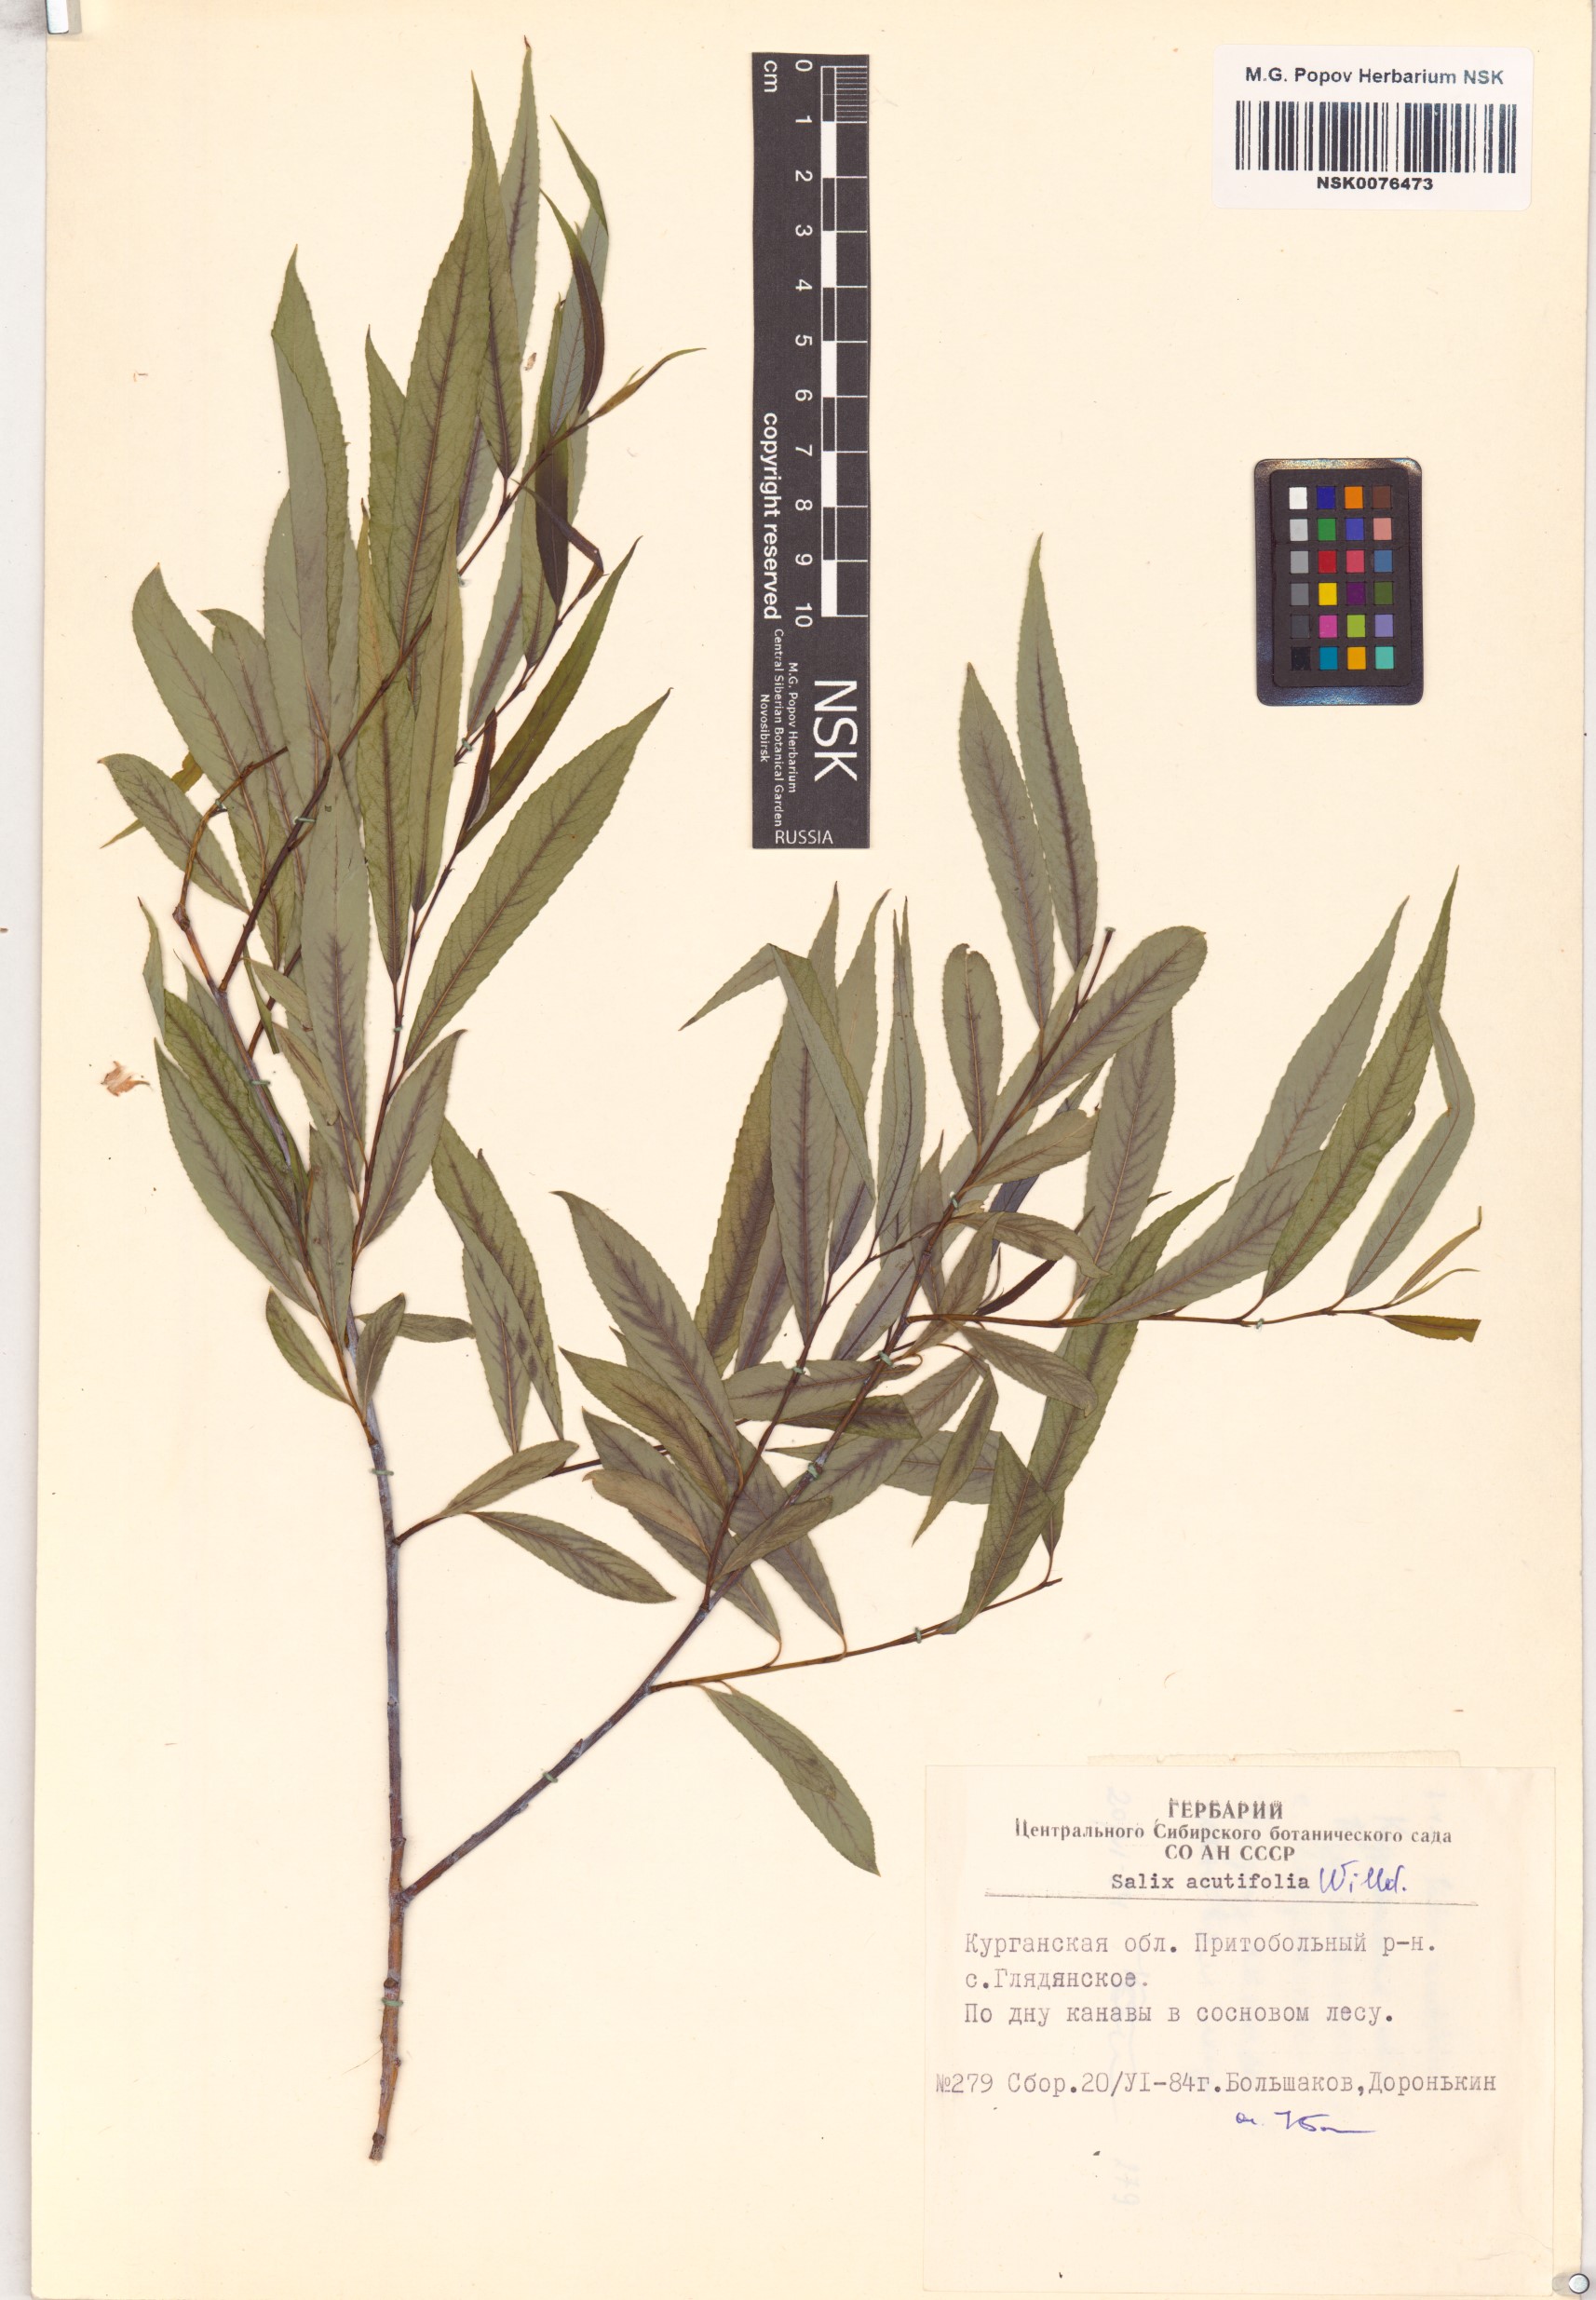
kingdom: Plantae
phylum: Tracheophyta
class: Magnoliopsida
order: Malpighiales
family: Salicaceae
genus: Salix
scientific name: Salix acutifolia
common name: Siberian violet-willow
